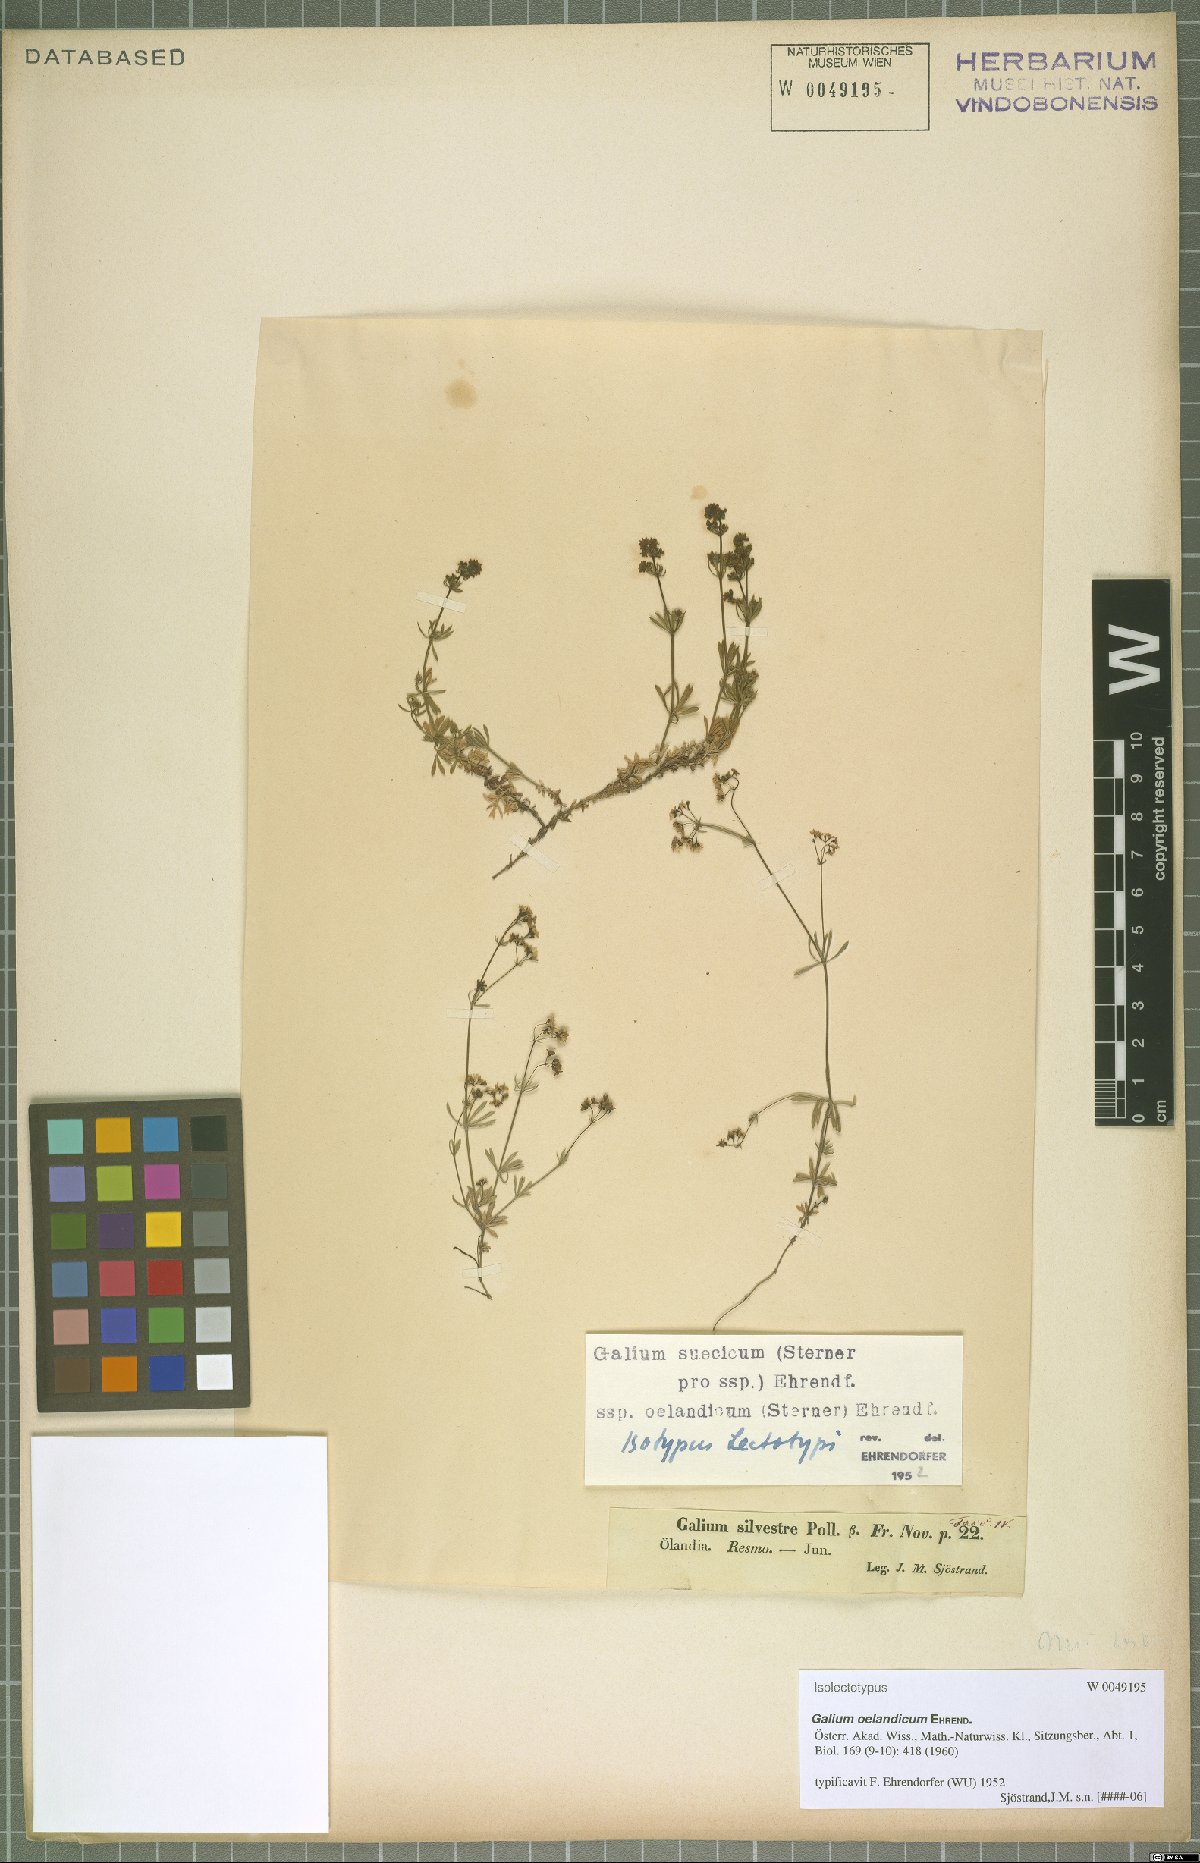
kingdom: Plantae
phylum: Tracheophyta
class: Magnoliopsida
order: Gentianales
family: Rubiaceae
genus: Galium
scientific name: Galium oelandicum
